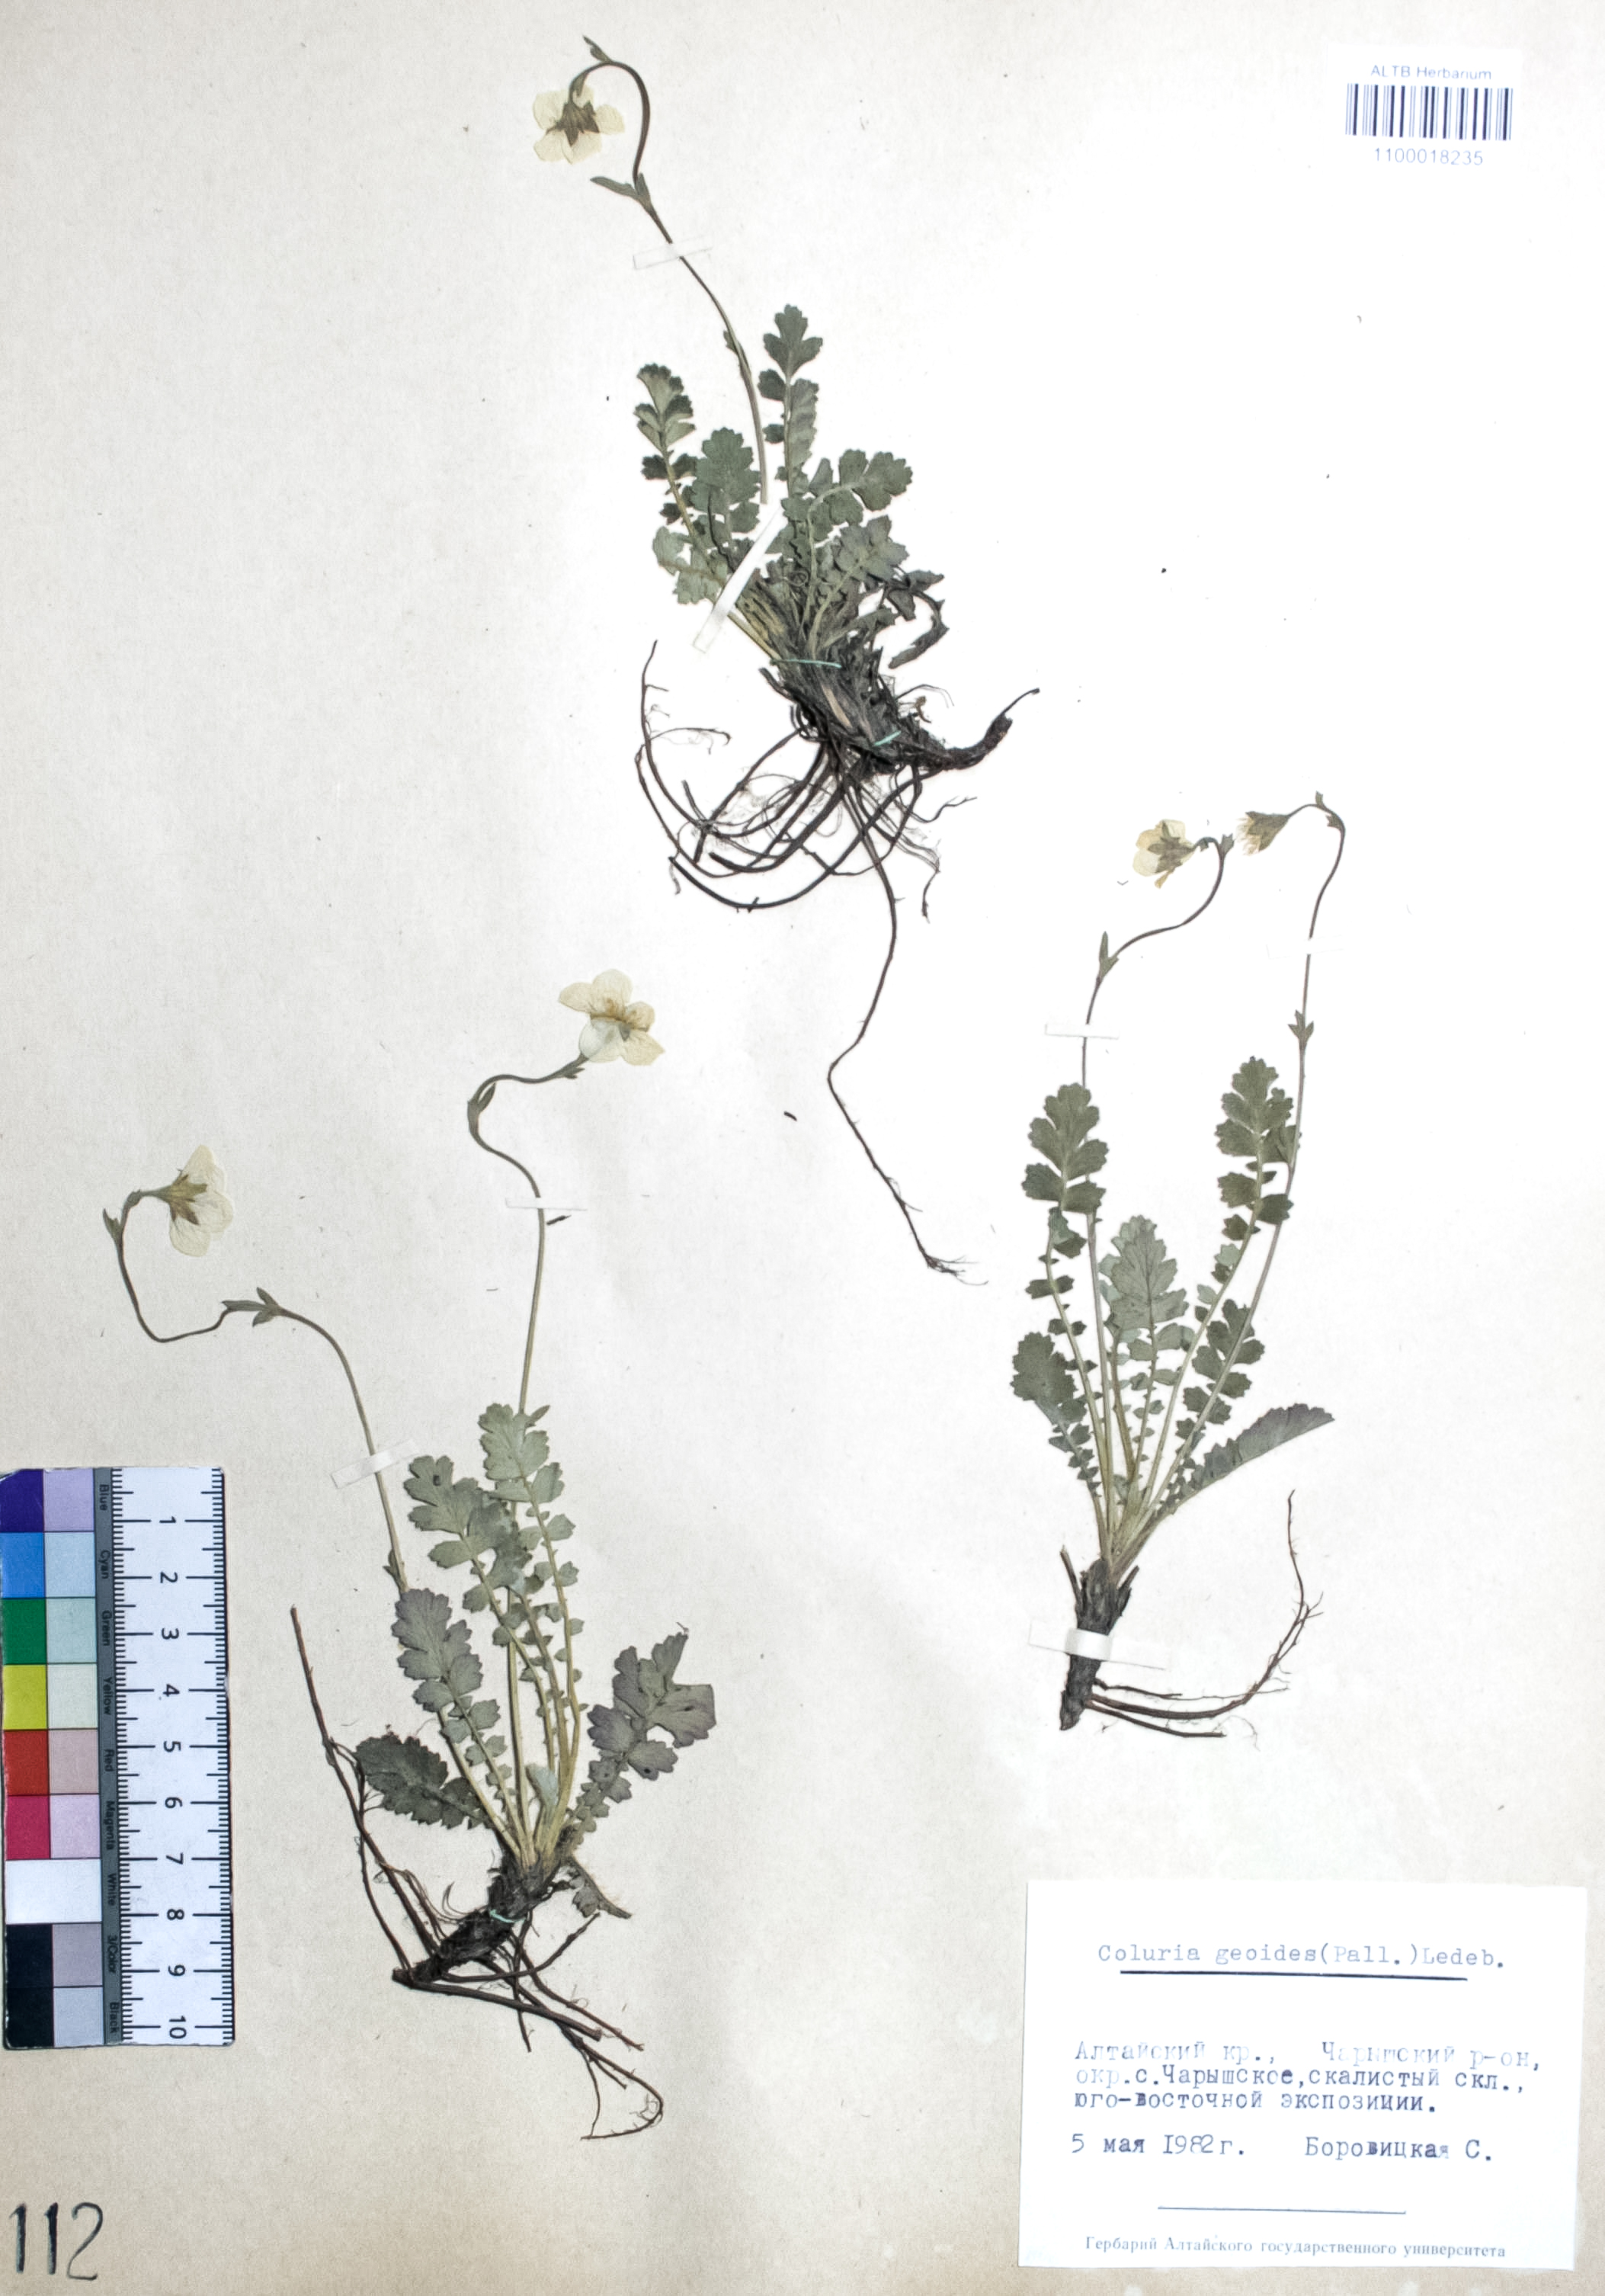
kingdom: Plantae
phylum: Tracheophyta
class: Magnoliopsida
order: Rosales
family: Rosaceae
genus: Geum
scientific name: Geum geoides
